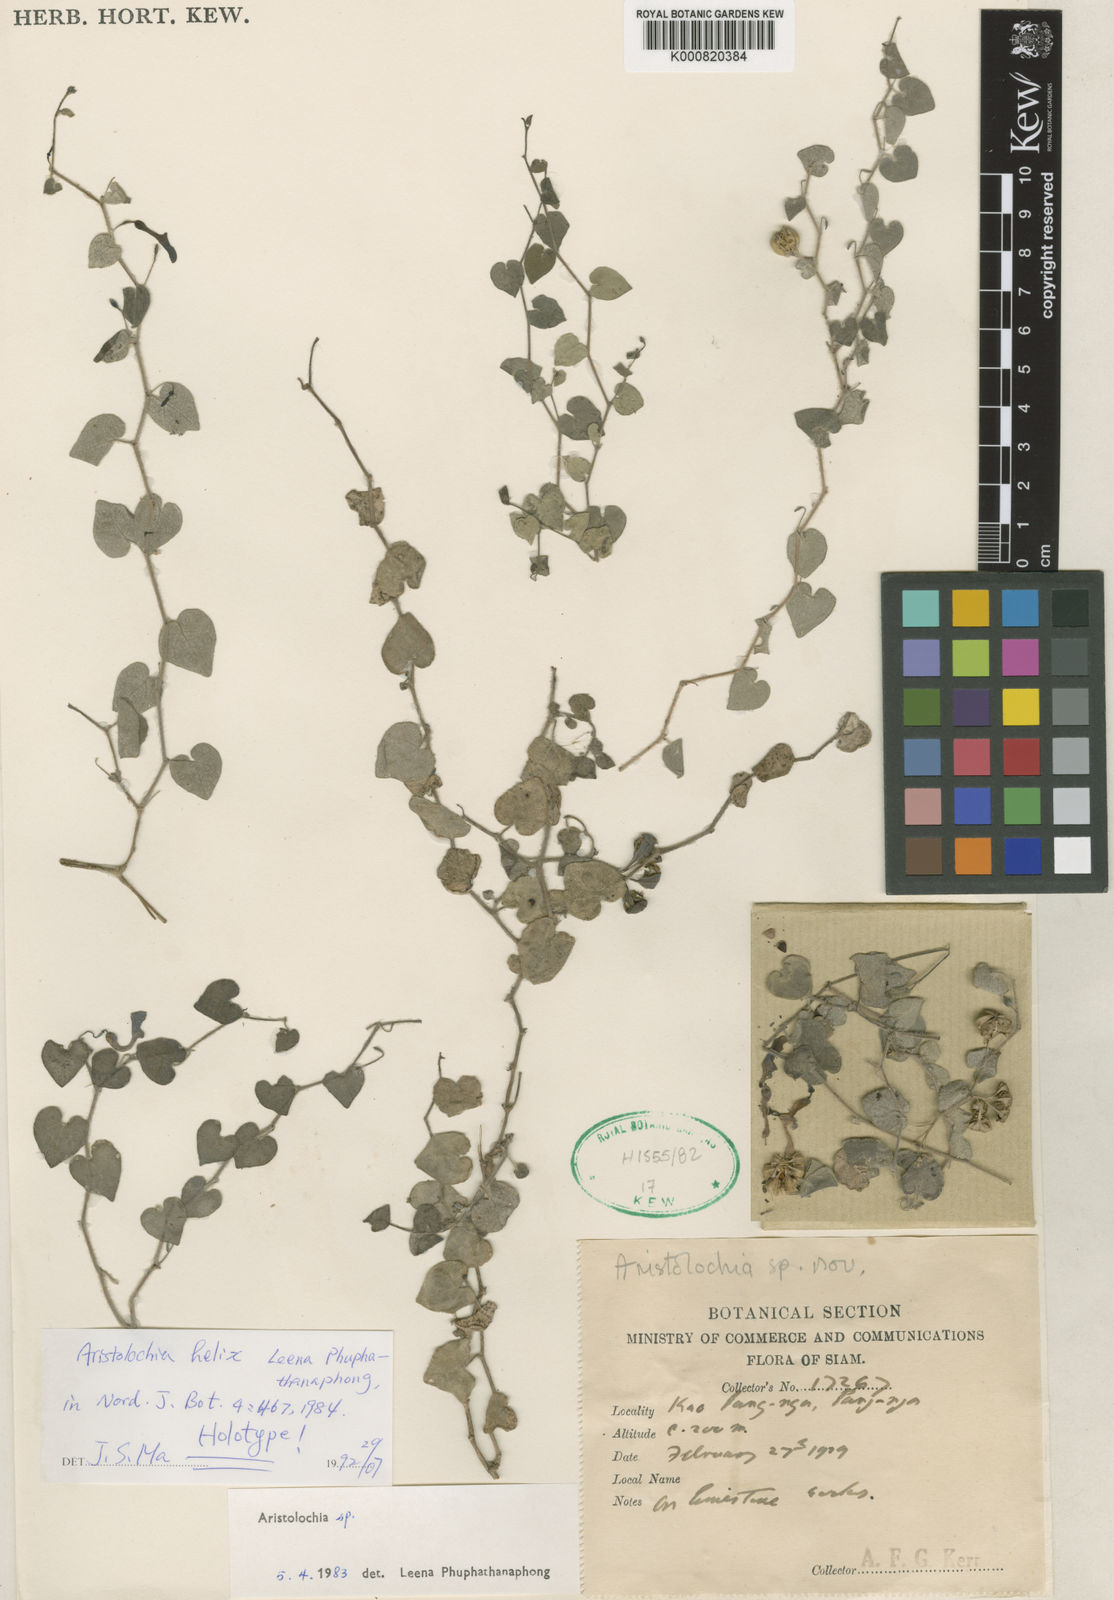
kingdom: Plantae
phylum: Tracheophyta
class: Magnoliopsida
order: Piperales
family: Aristolochiaceae
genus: Aristolochia
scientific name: Aristolochia helix
